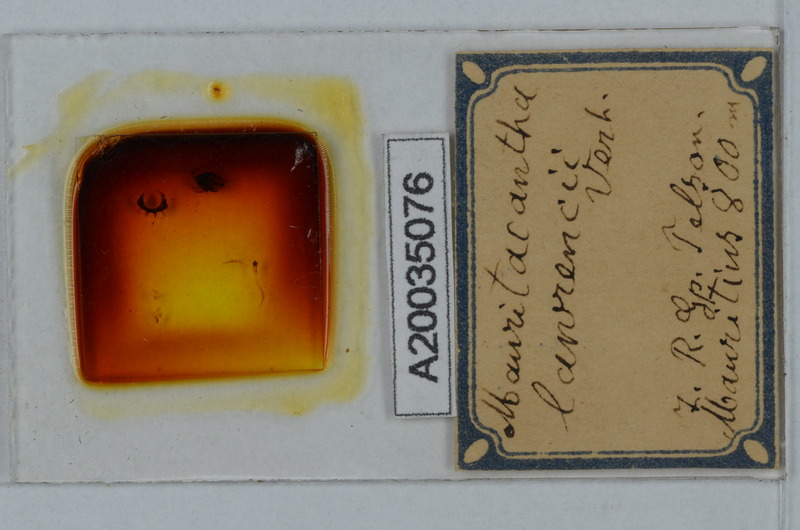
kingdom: Animalia
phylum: Arthropoda
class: Diplopoda
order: Polydesmida
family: Trichopolydesmidae
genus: Mauritacantha
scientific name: Mauritacantha lawrencei
